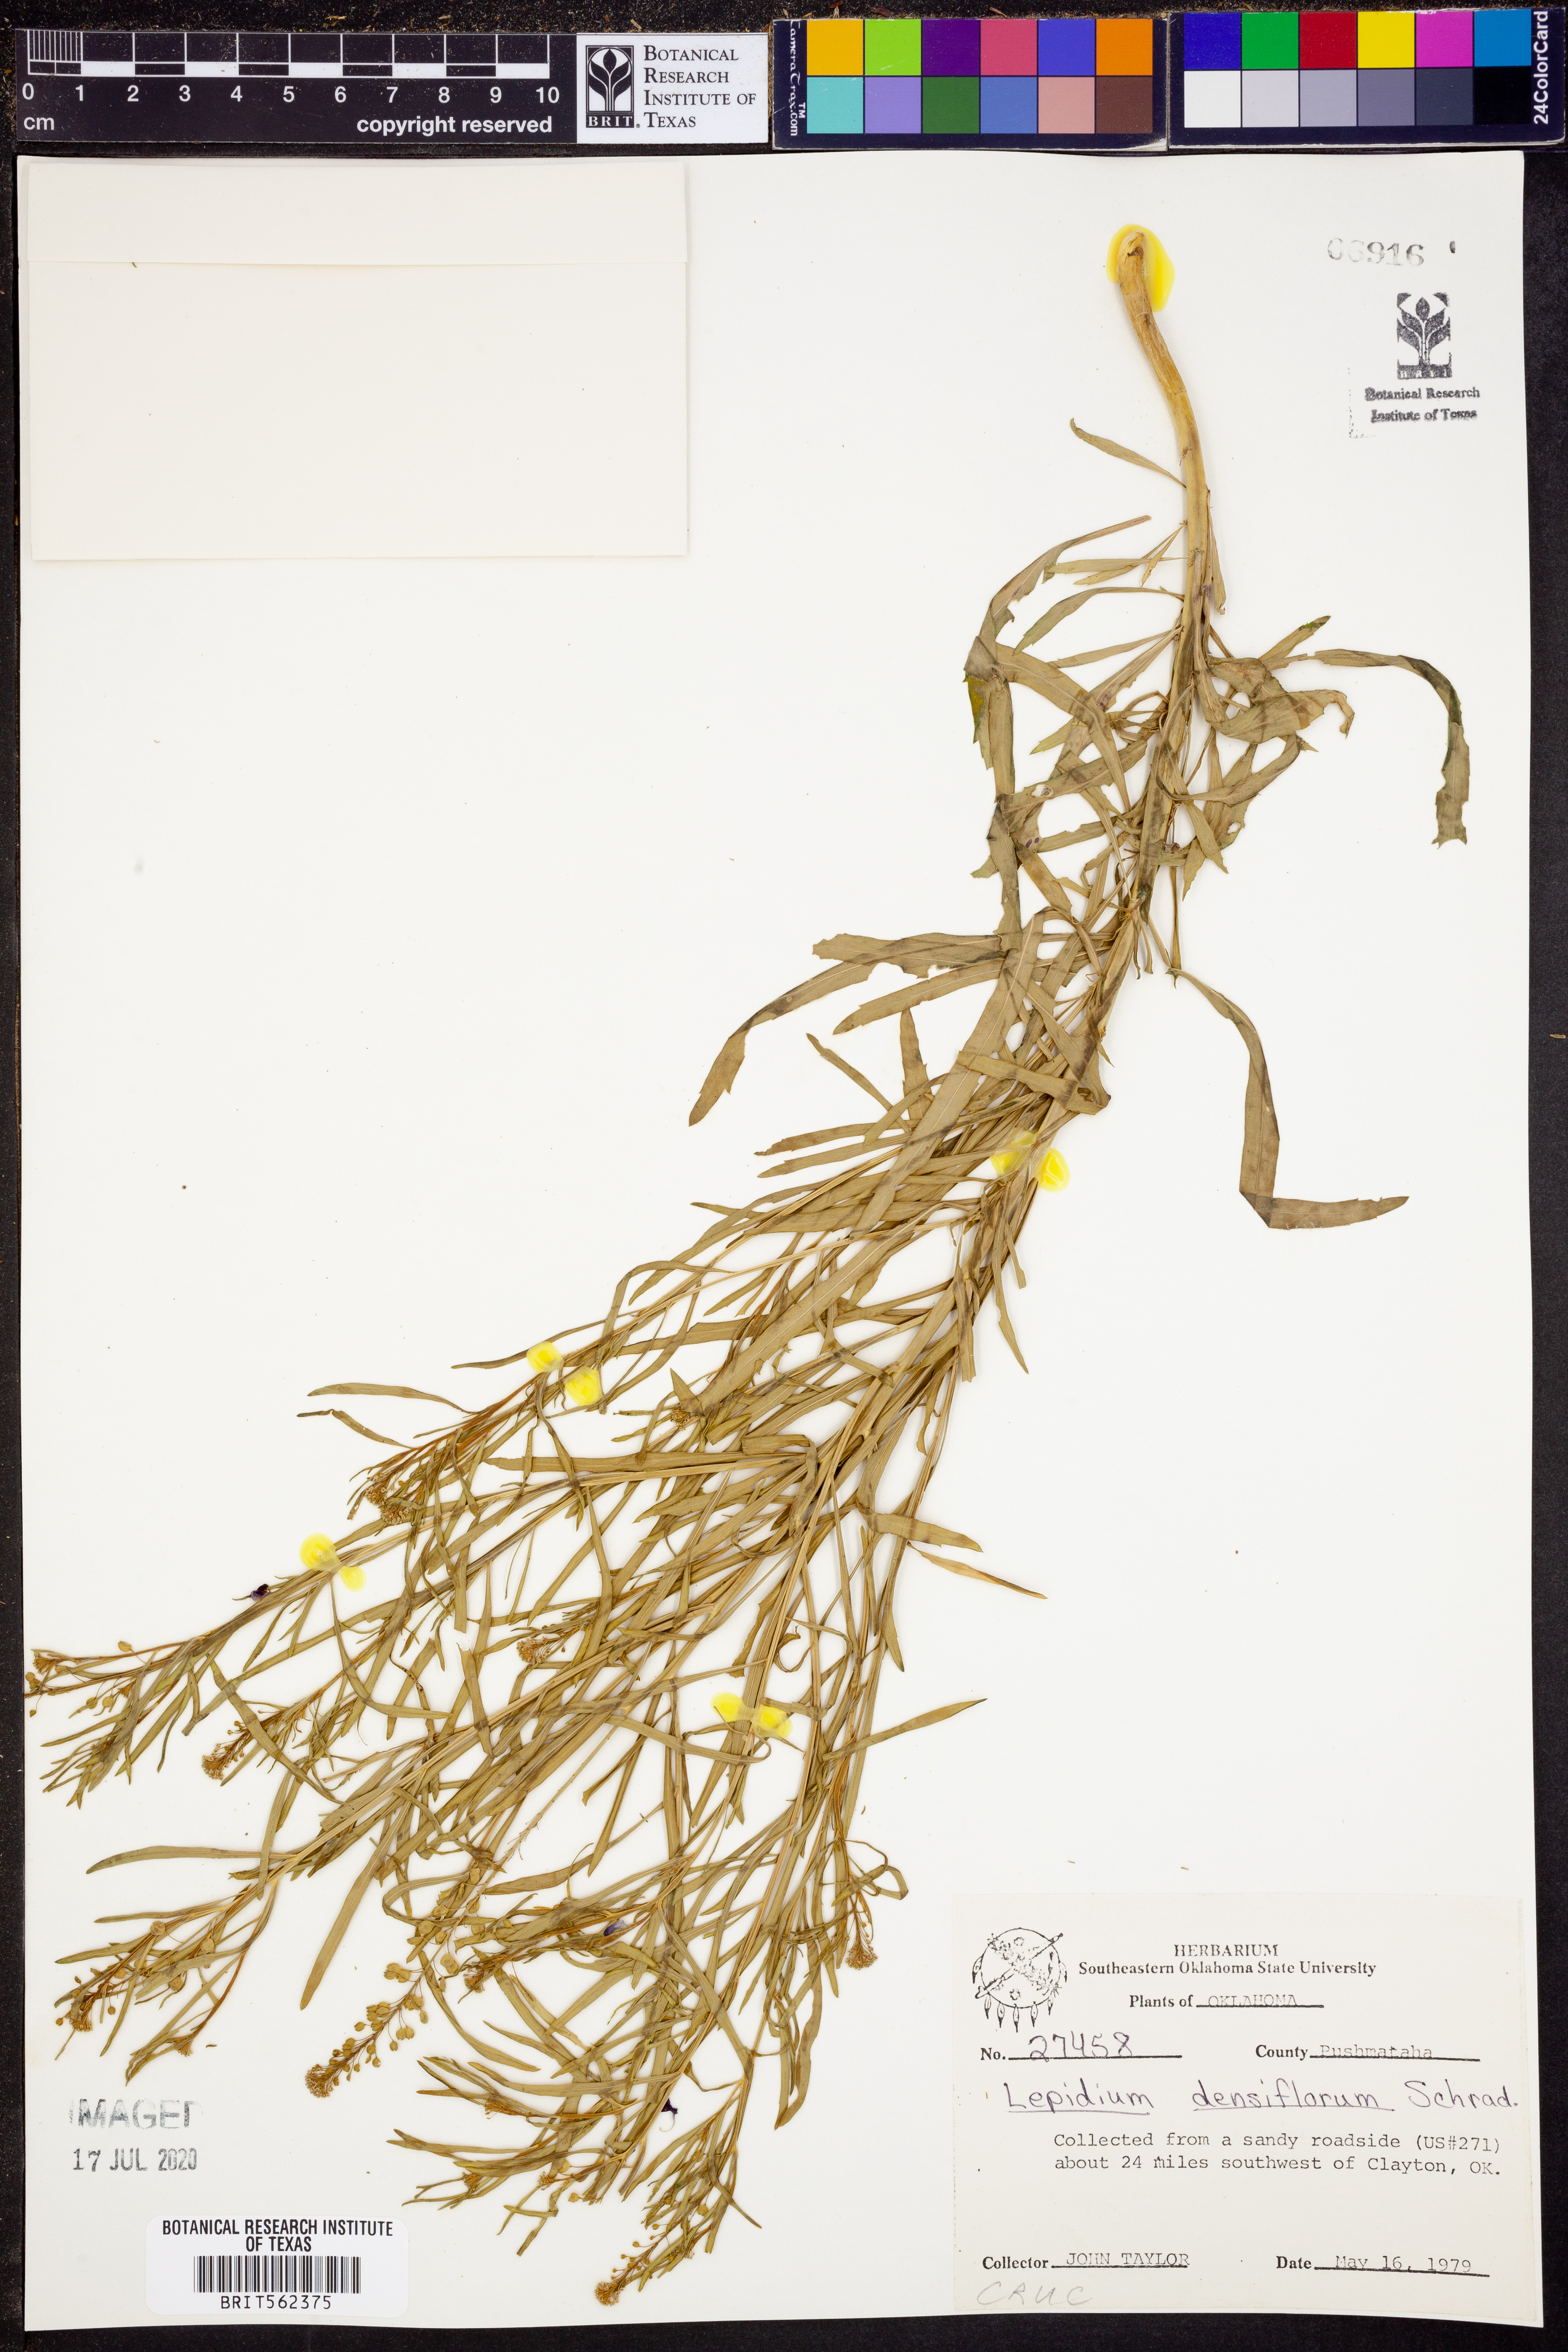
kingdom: Plantae
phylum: Tracheophyta
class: Magnoliopsida
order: Brassicales
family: Brassicaceae
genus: Lepidium
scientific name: Lepidium densiflorum
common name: Miner's pepperwort
